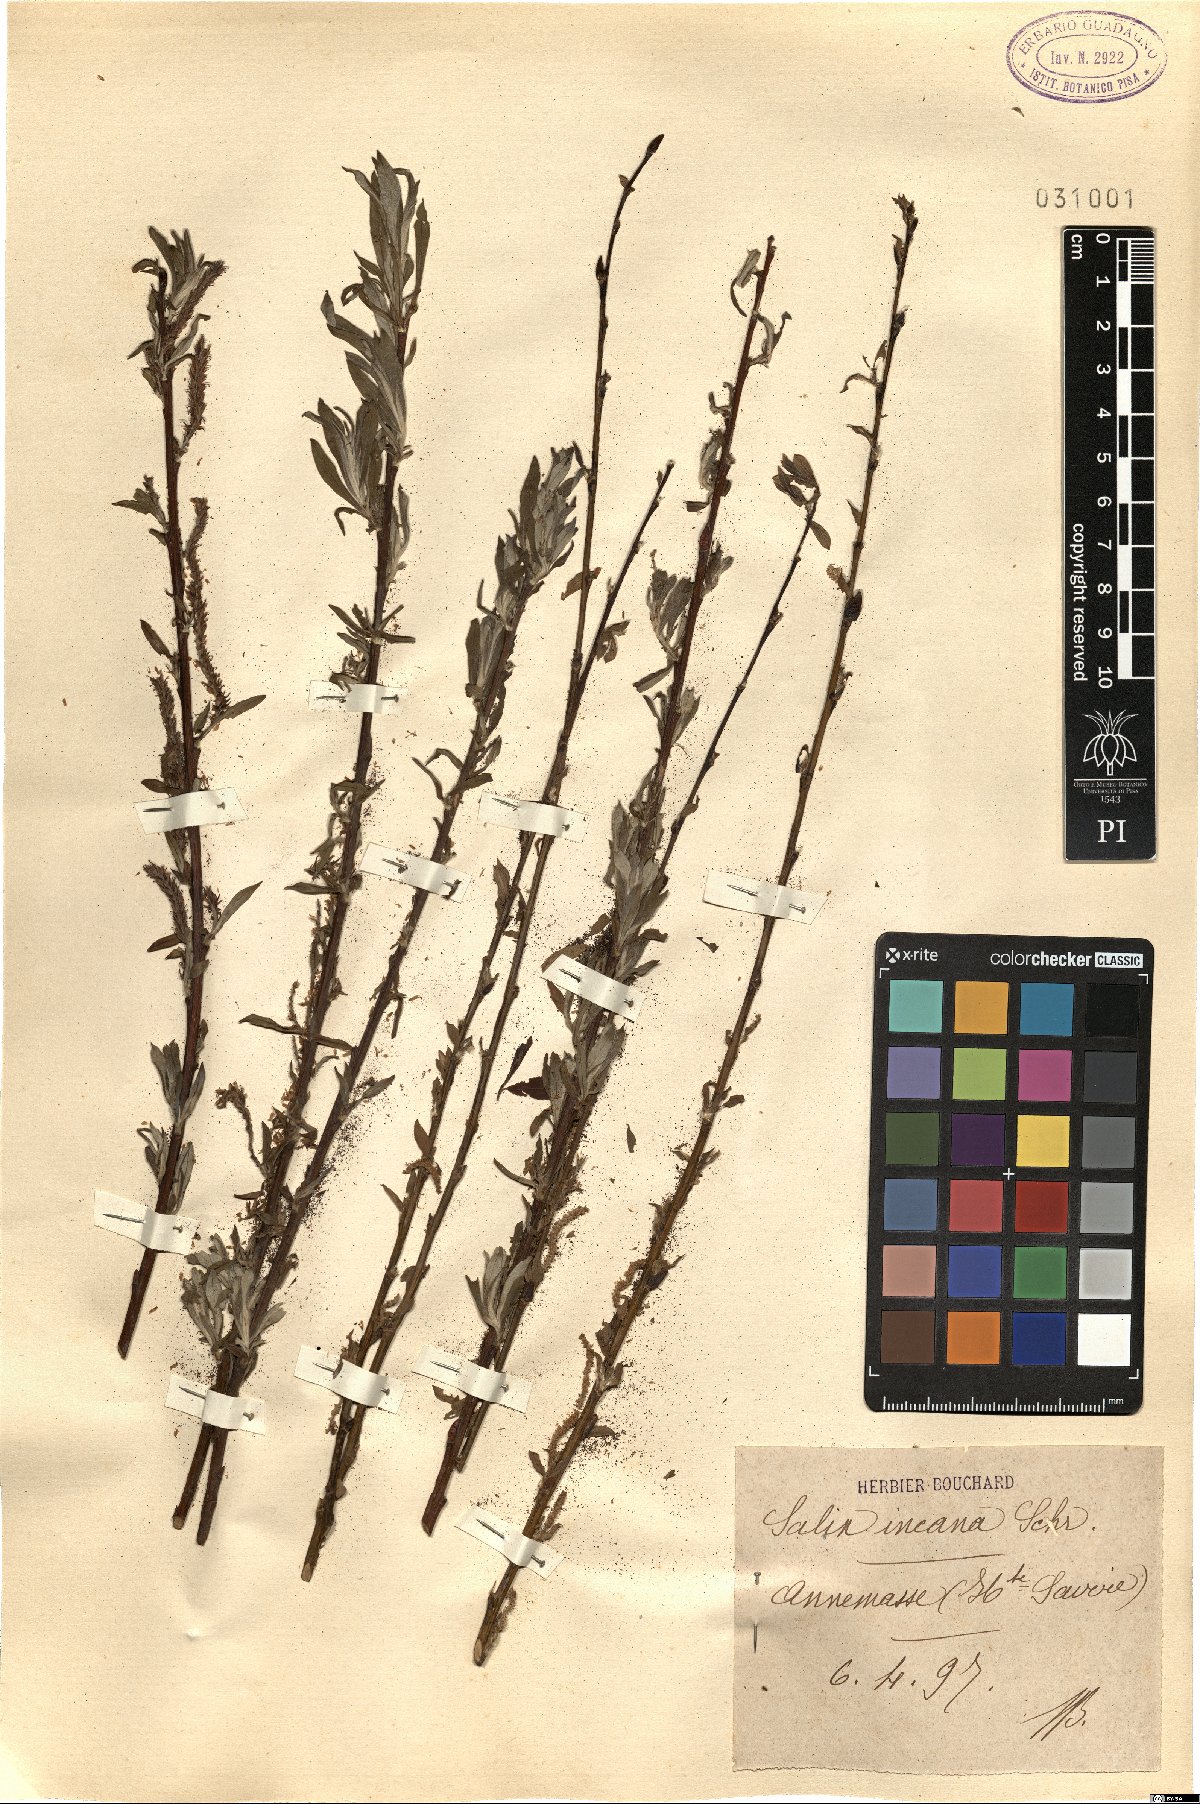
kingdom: Plantae
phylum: Tracheophyta
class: Magnoliopsida
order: Malpighiales
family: Salicaceae
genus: Salix
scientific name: Salix eleagnos
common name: Elaeagnus willow
